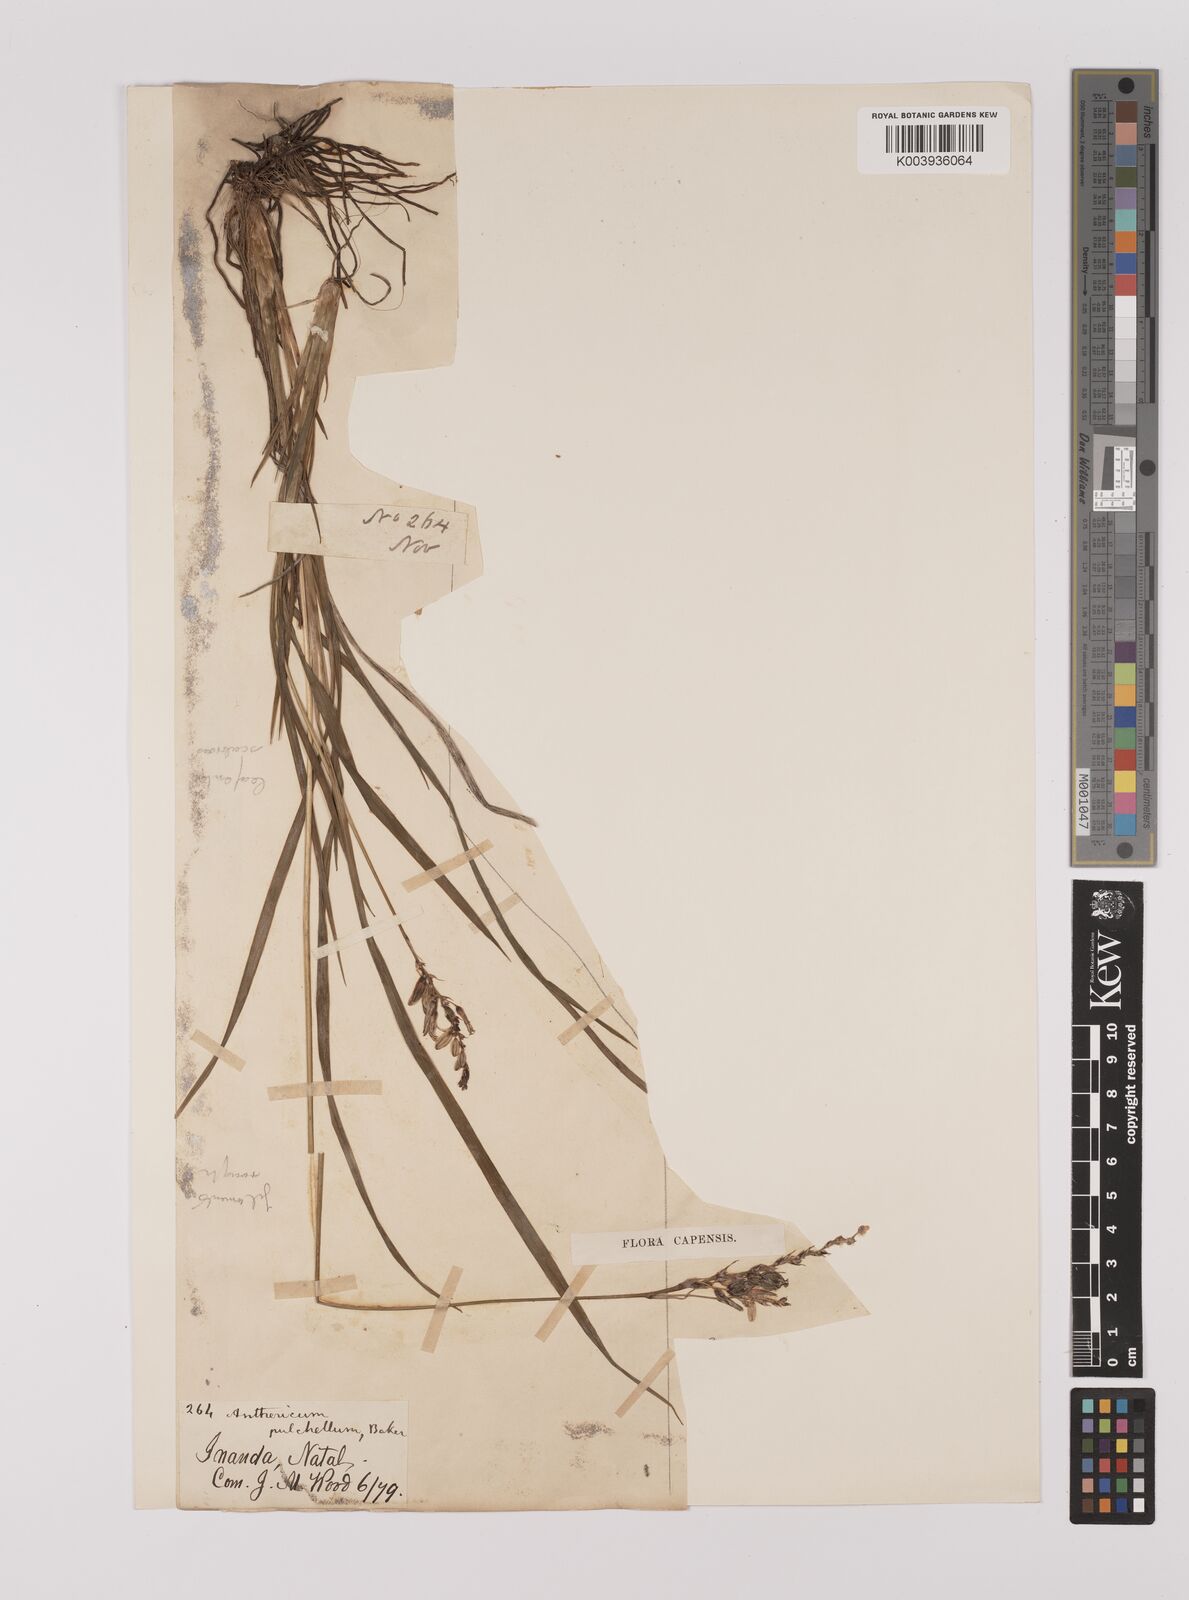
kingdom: Plantae
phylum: Tracheophyta
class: Liliopsida
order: Asparagales
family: Asparagaceae
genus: Chlorophytum
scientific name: Chlorophytum saundersiae
